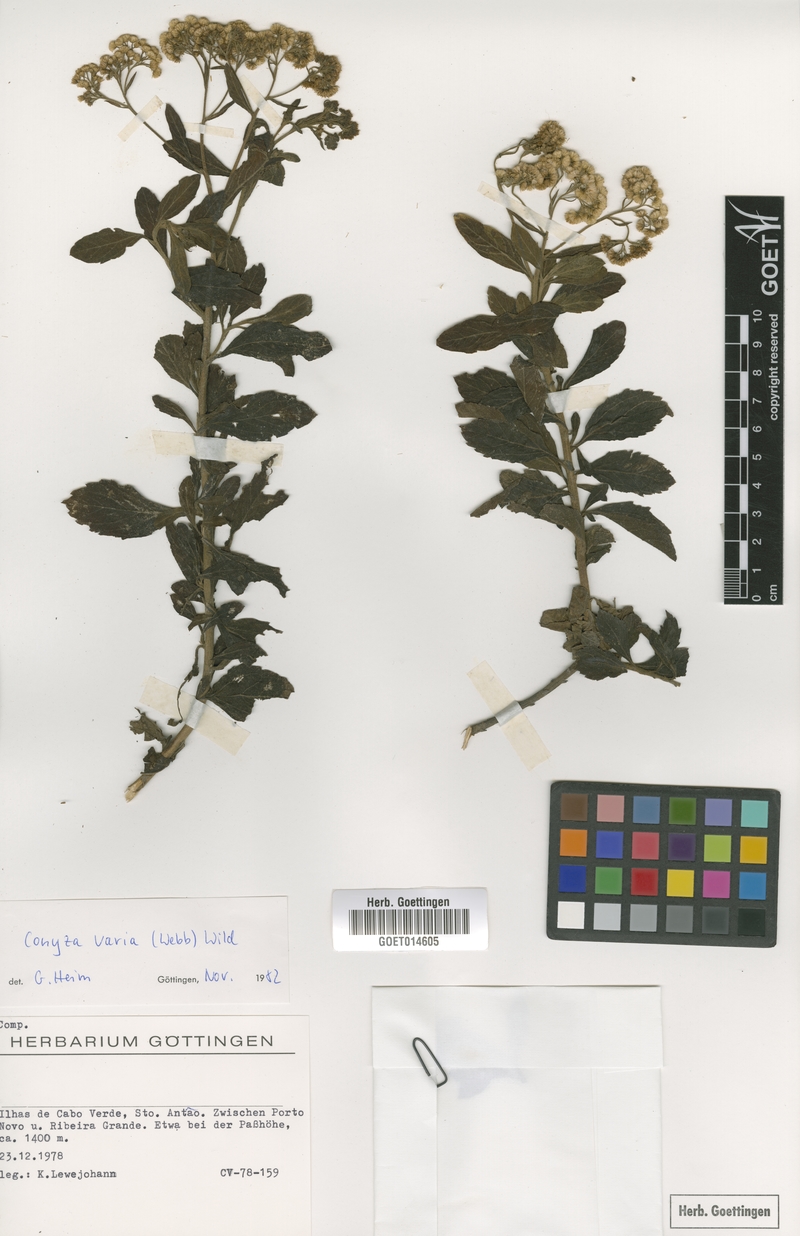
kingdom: Plantae
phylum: Tracheophyta
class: Magnoliopsida
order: Asterales
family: Asteraceae
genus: Nidorella
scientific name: Nidorella varia
